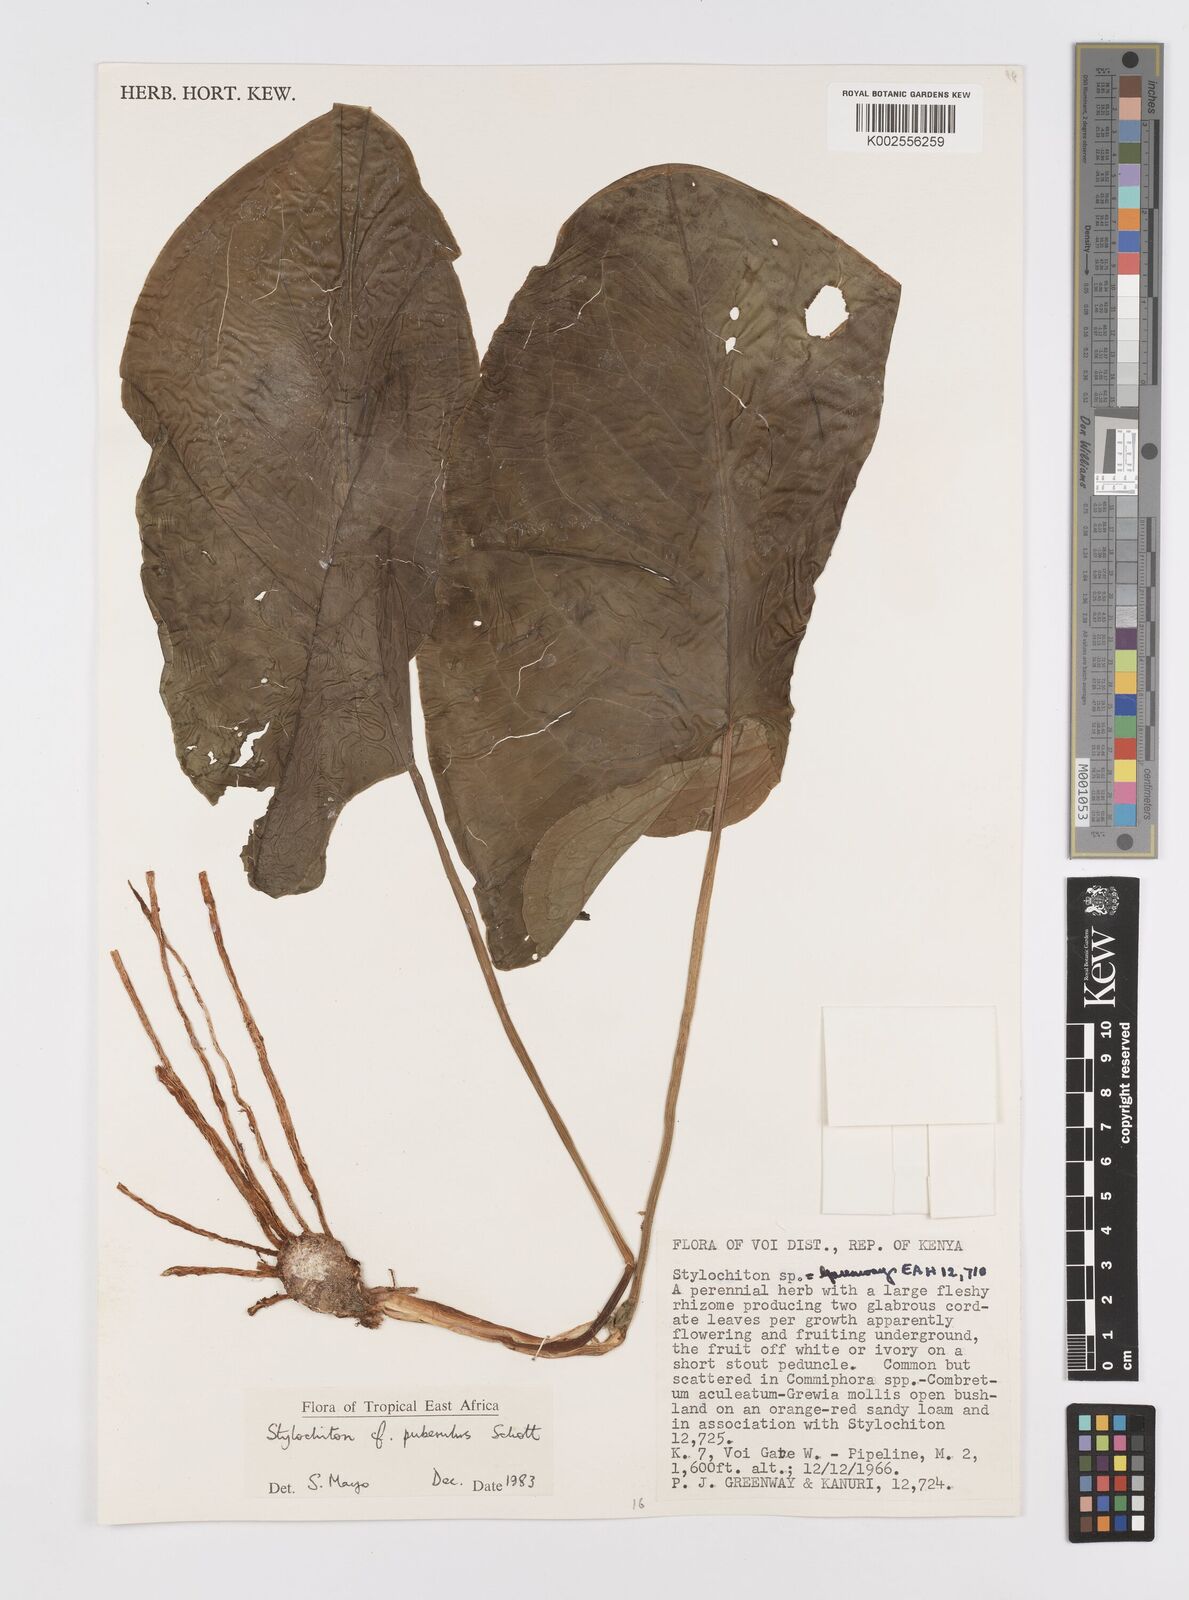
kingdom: Plantae
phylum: Tracheophyta
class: Liliopsida
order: Alismatales
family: Araceae
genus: Stylochaeton
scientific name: Stylochaeton puberulum
